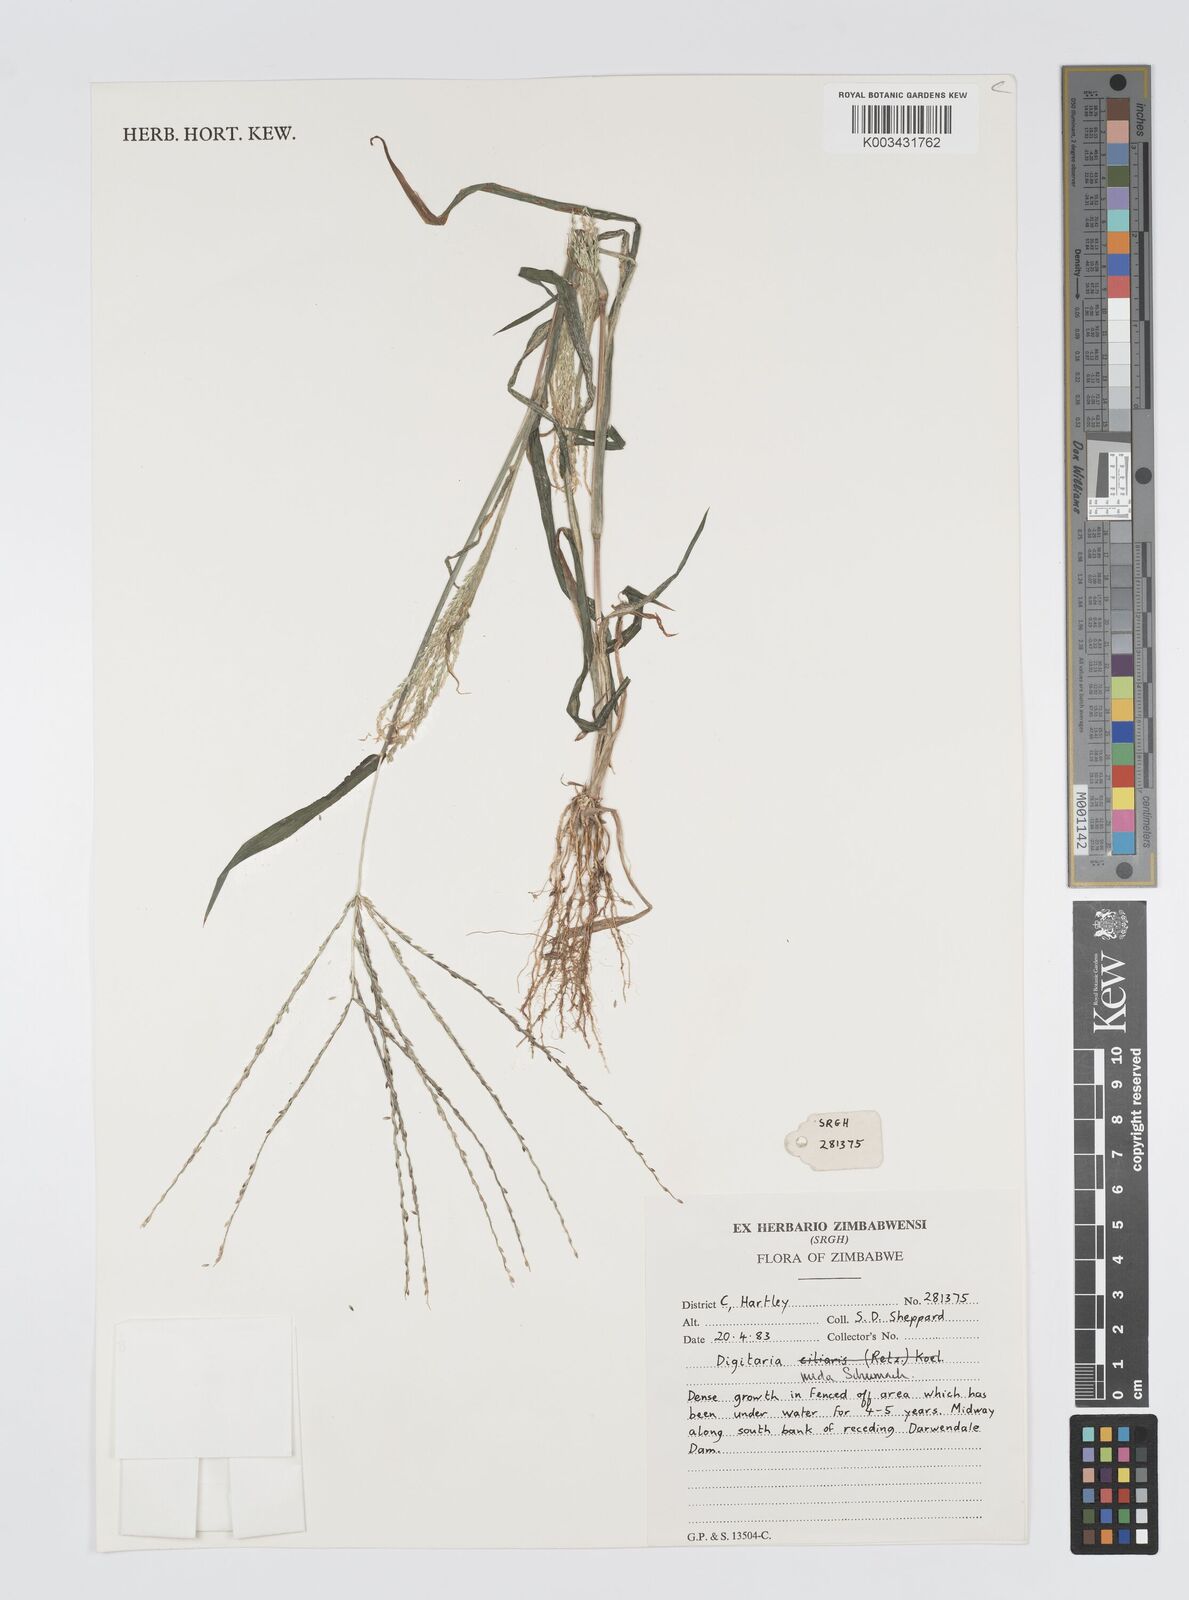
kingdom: Plantae
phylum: Tracheophyta
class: Liliopsida
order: Poales
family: Poaceae
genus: Digitaria
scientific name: Digitaria nuda
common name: Naked crabgrass
